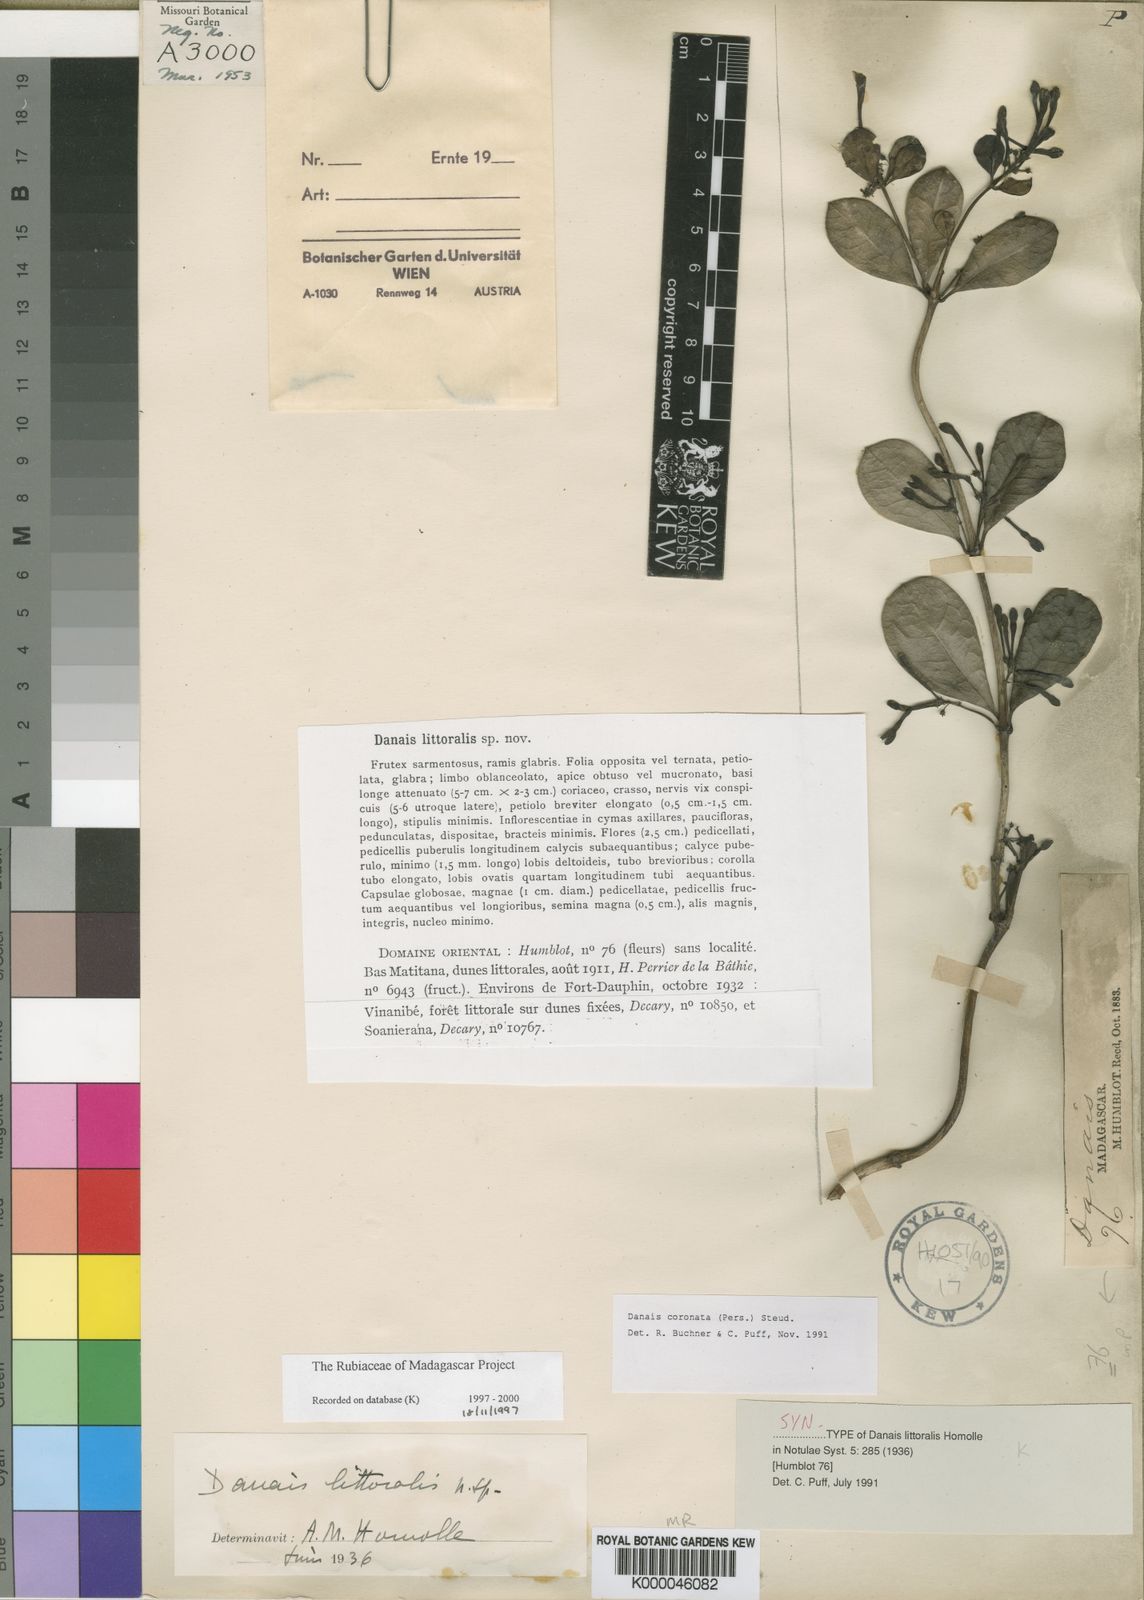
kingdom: Plantae
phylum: Tracheophyta
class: Magnoliopsida
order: Gentianales
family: Rubiaceae
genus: Danais
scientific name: Danais coronata
